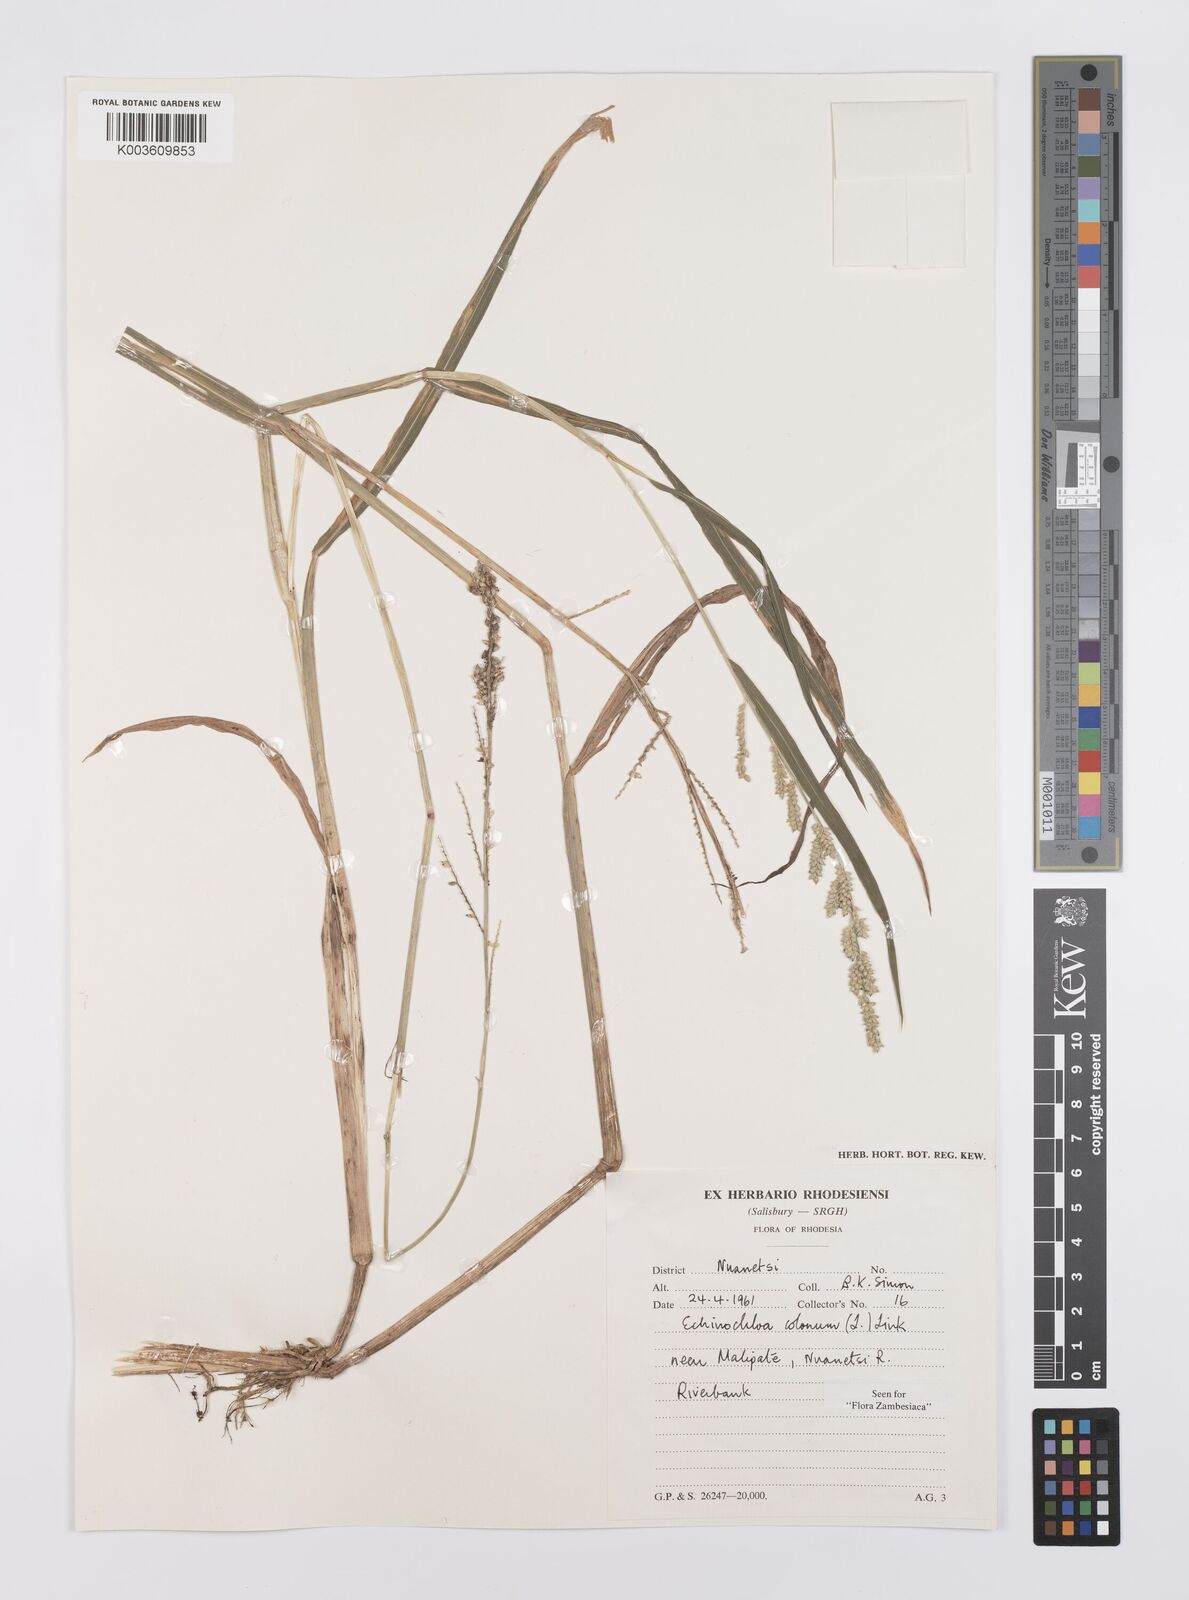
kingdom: Plantae
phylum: Tracheophyta
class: Liliopsida
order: Poales
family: Poaceae
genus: Echinochloa
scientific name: Echinochloa colonum
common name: Jungle rice
